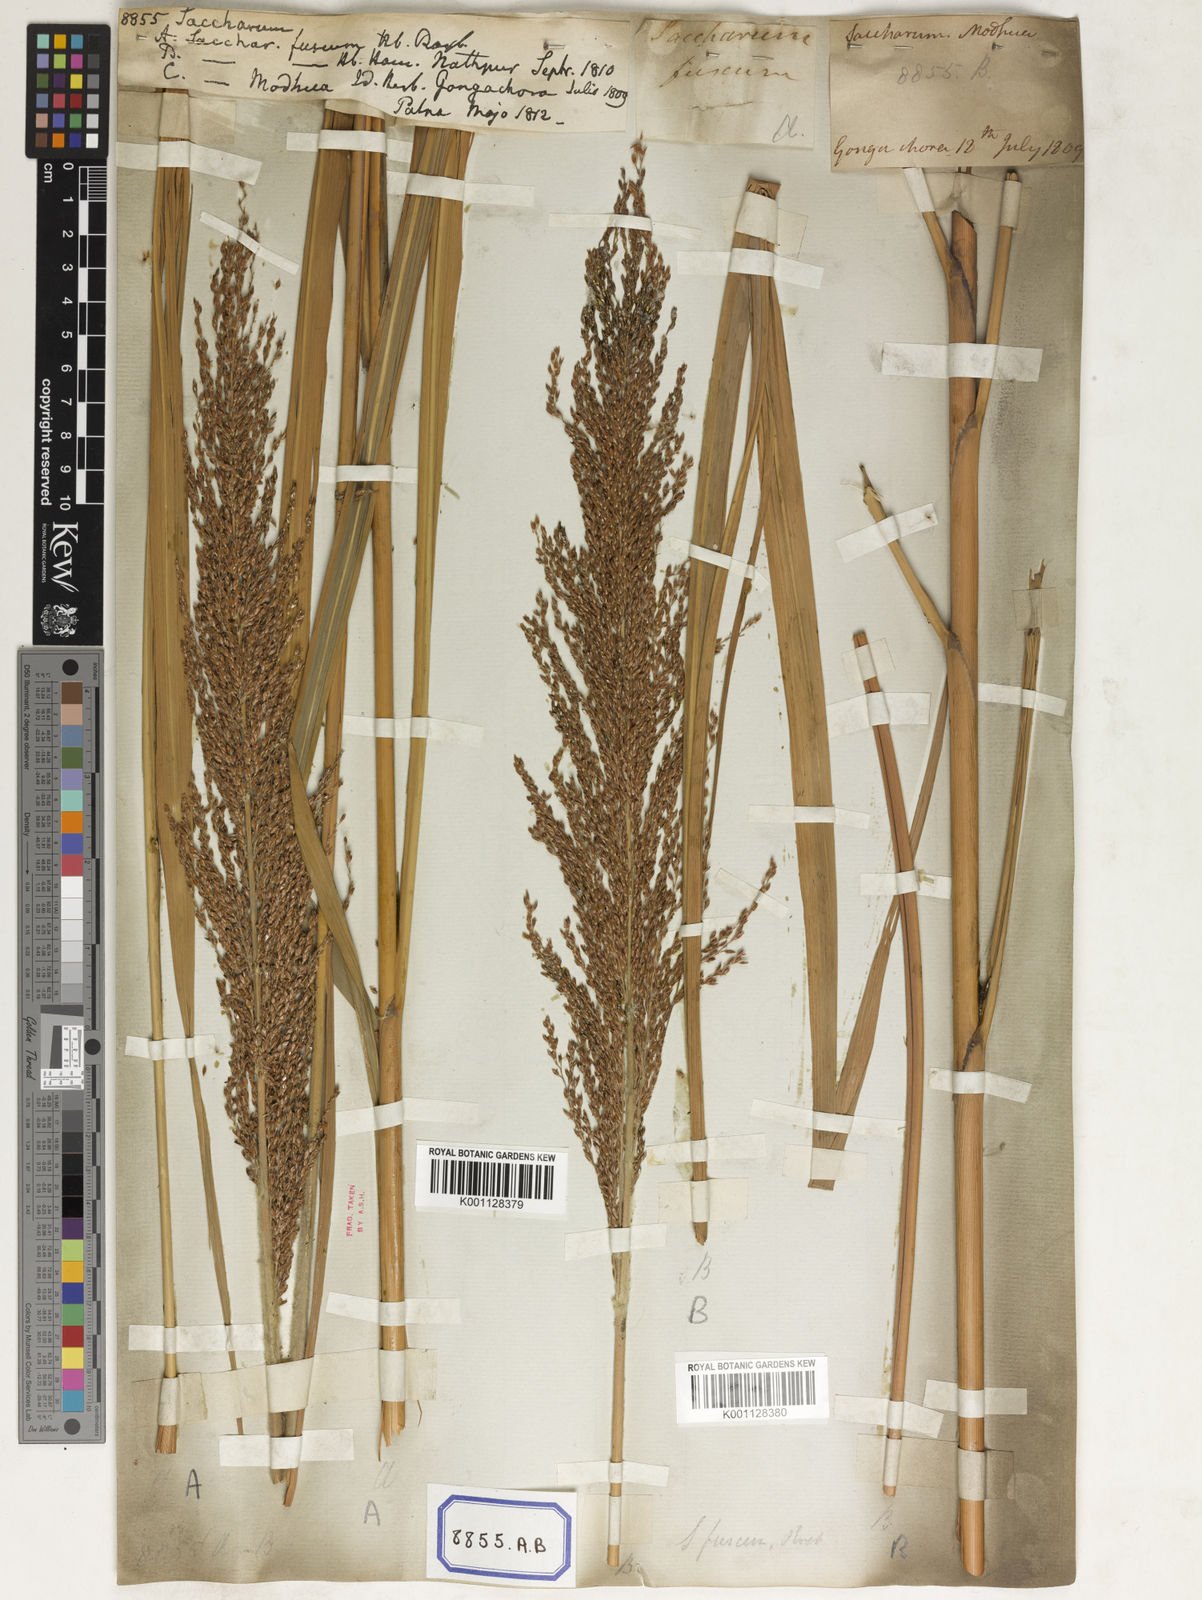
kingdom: Plantae
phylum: Tracheophyta
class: Liliopsida
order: Poales
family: Poaceae
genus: Saccharum
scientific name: Saccharum
